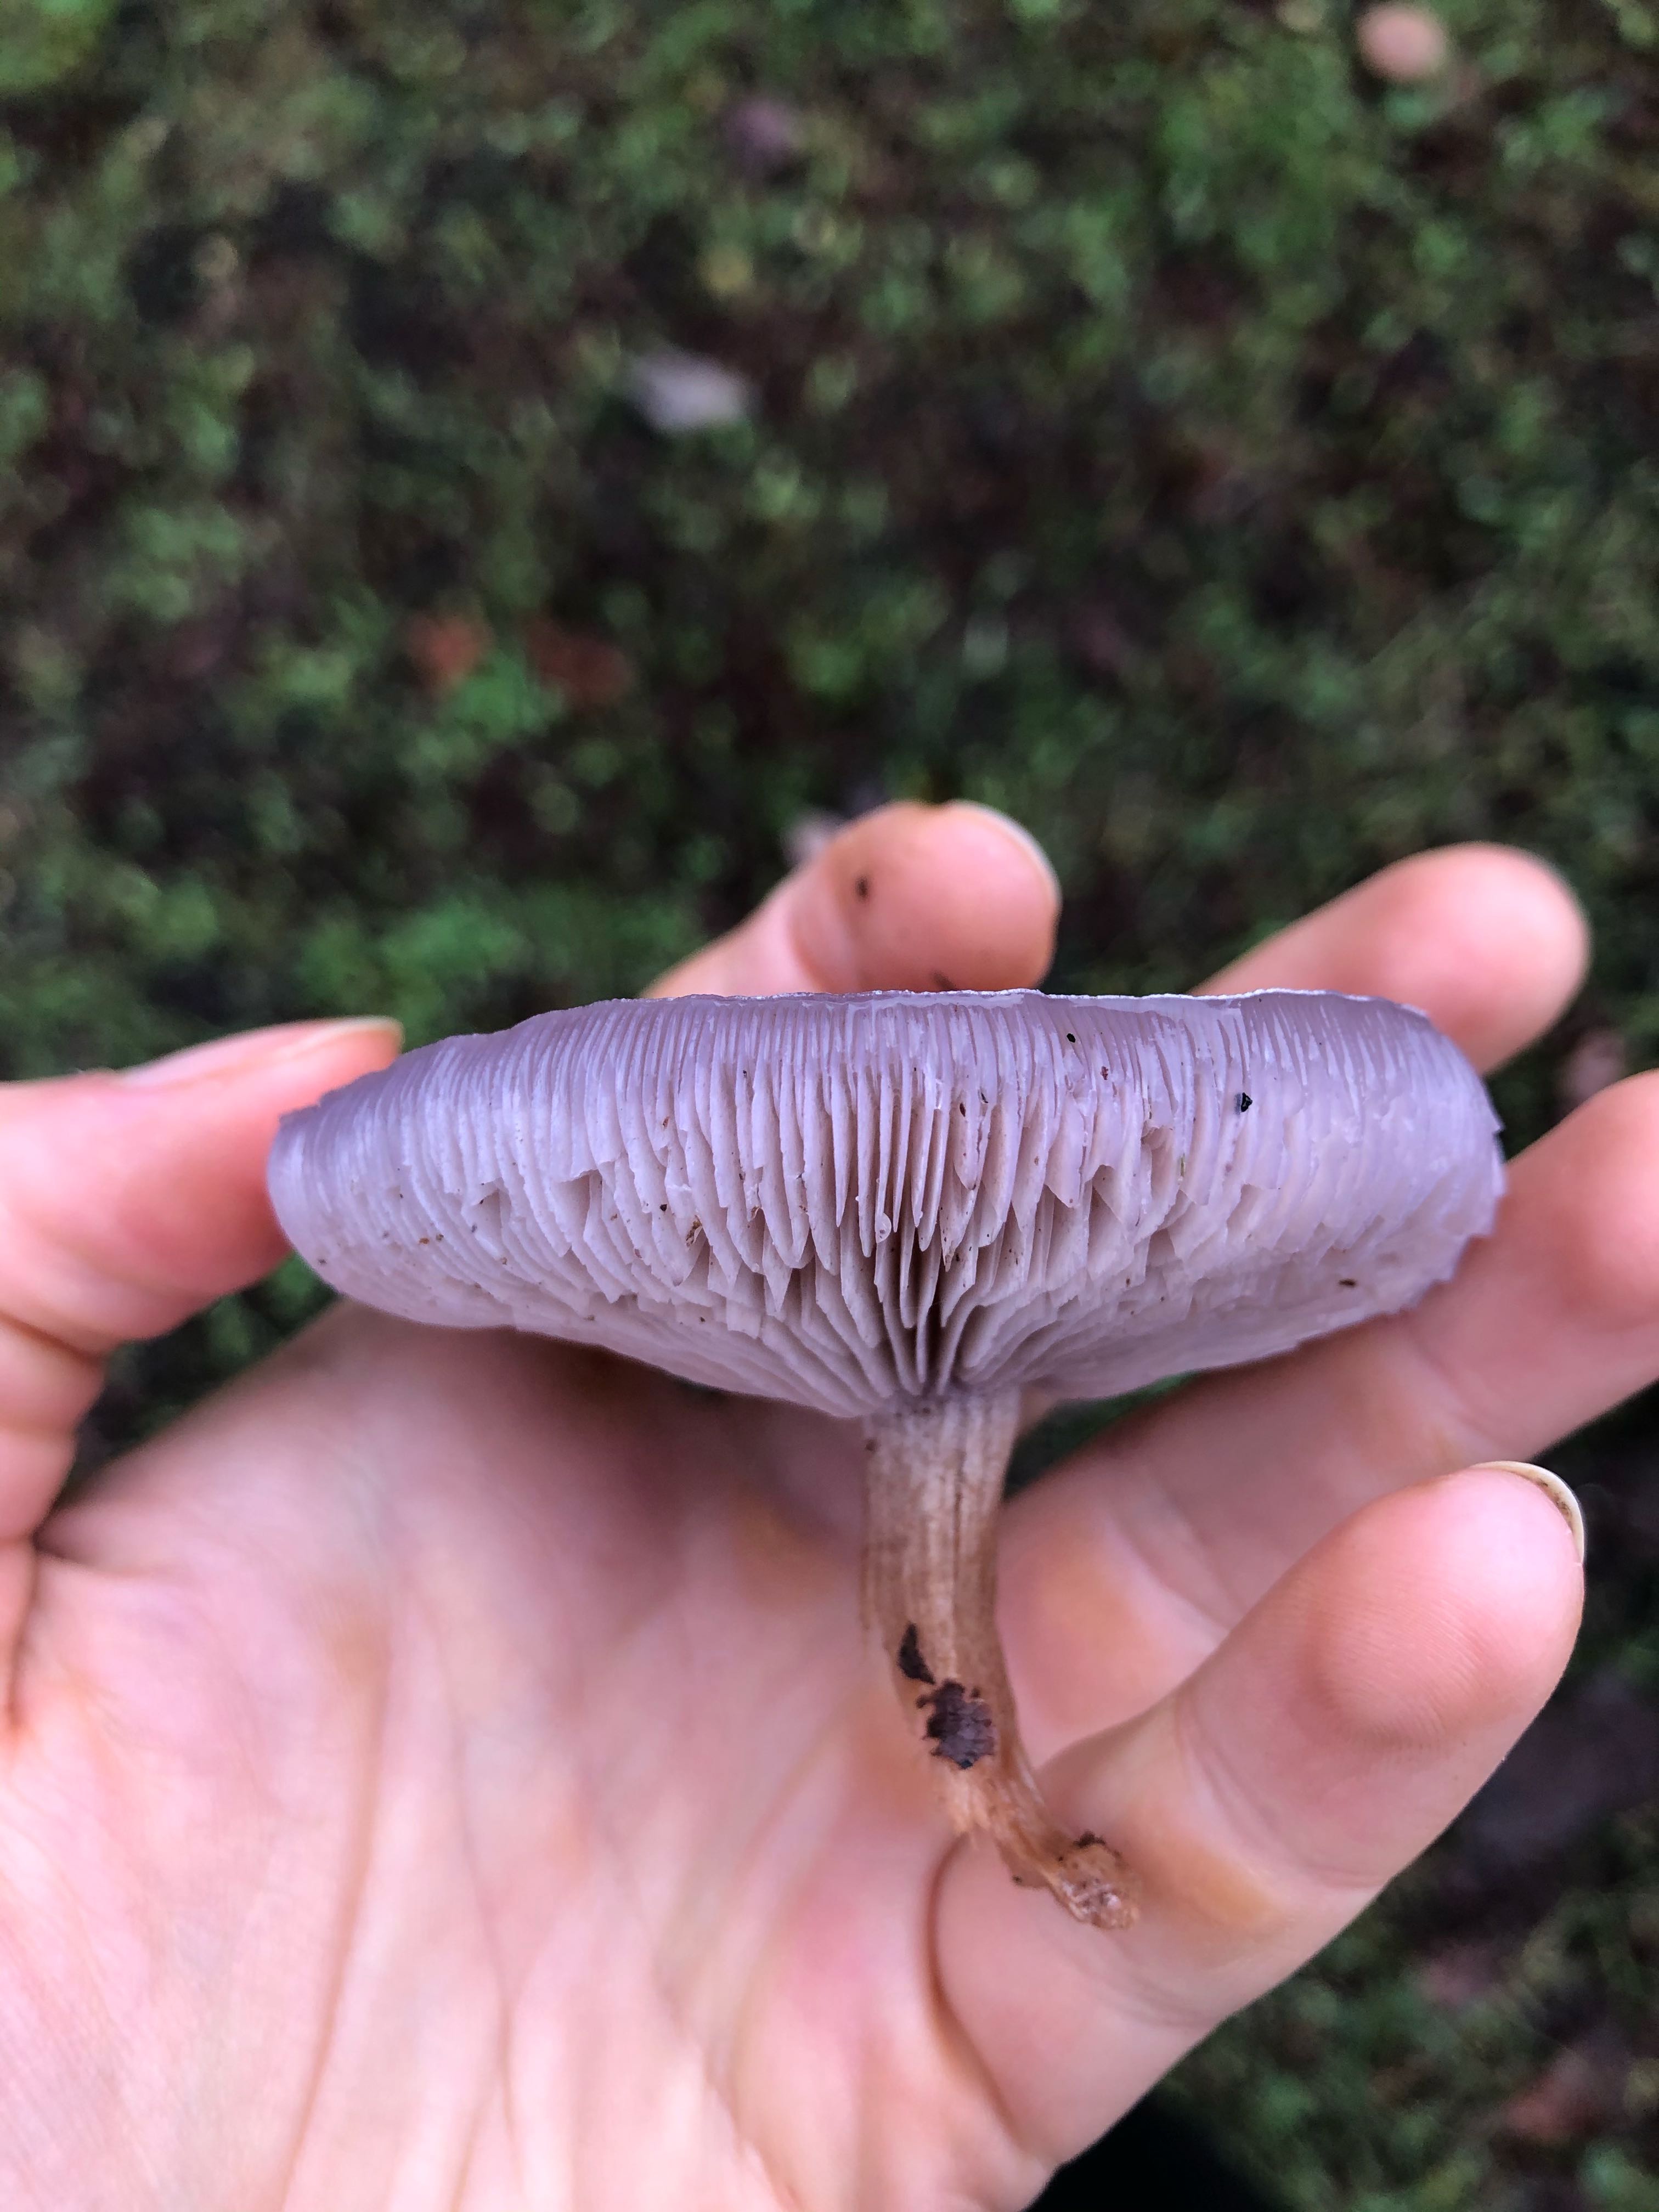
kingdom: Fungi
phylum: Basidiomycota
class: Agaricomycetes
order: Agaricales
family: Tricholomataceae
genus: Lepista
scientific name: Lepista lilacea
